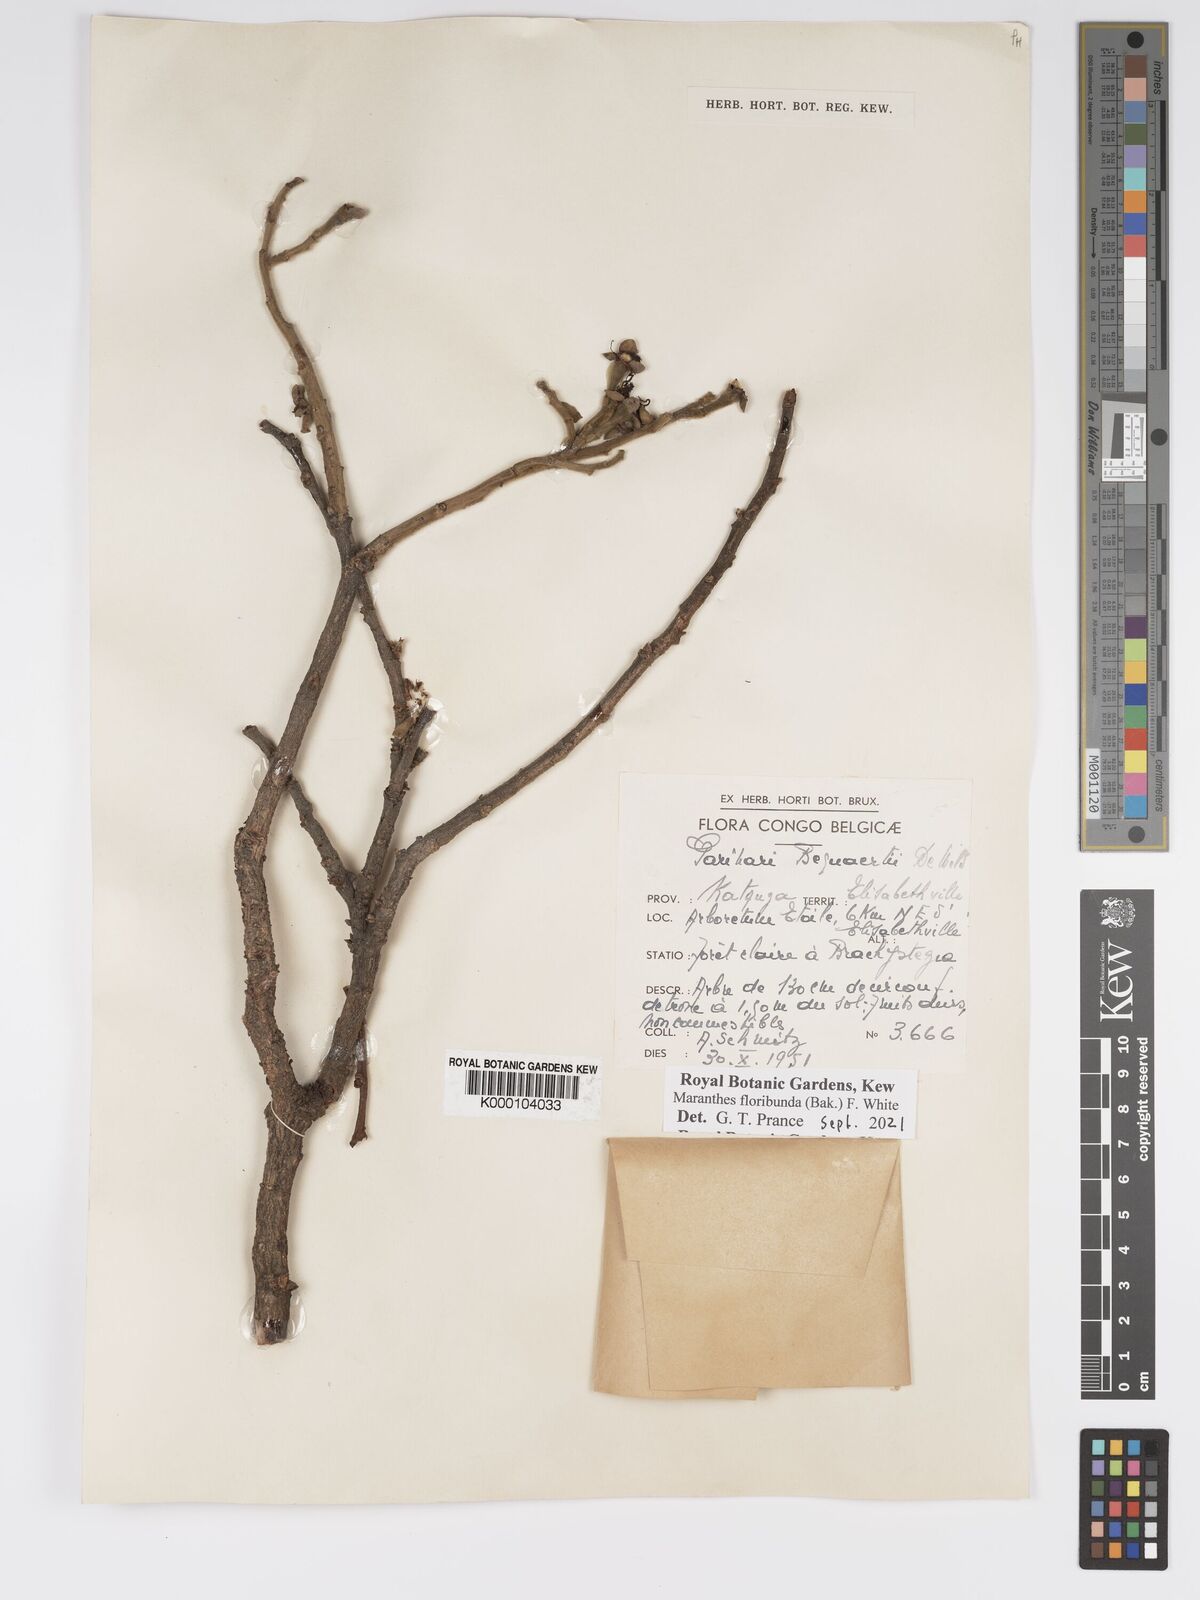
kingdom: Plantae
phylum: Tracheophyta
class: Magnoliopsida
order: Malpighiales
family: Chrysobalanaceae
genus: Maranthes
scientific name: Maranthes floribunda
